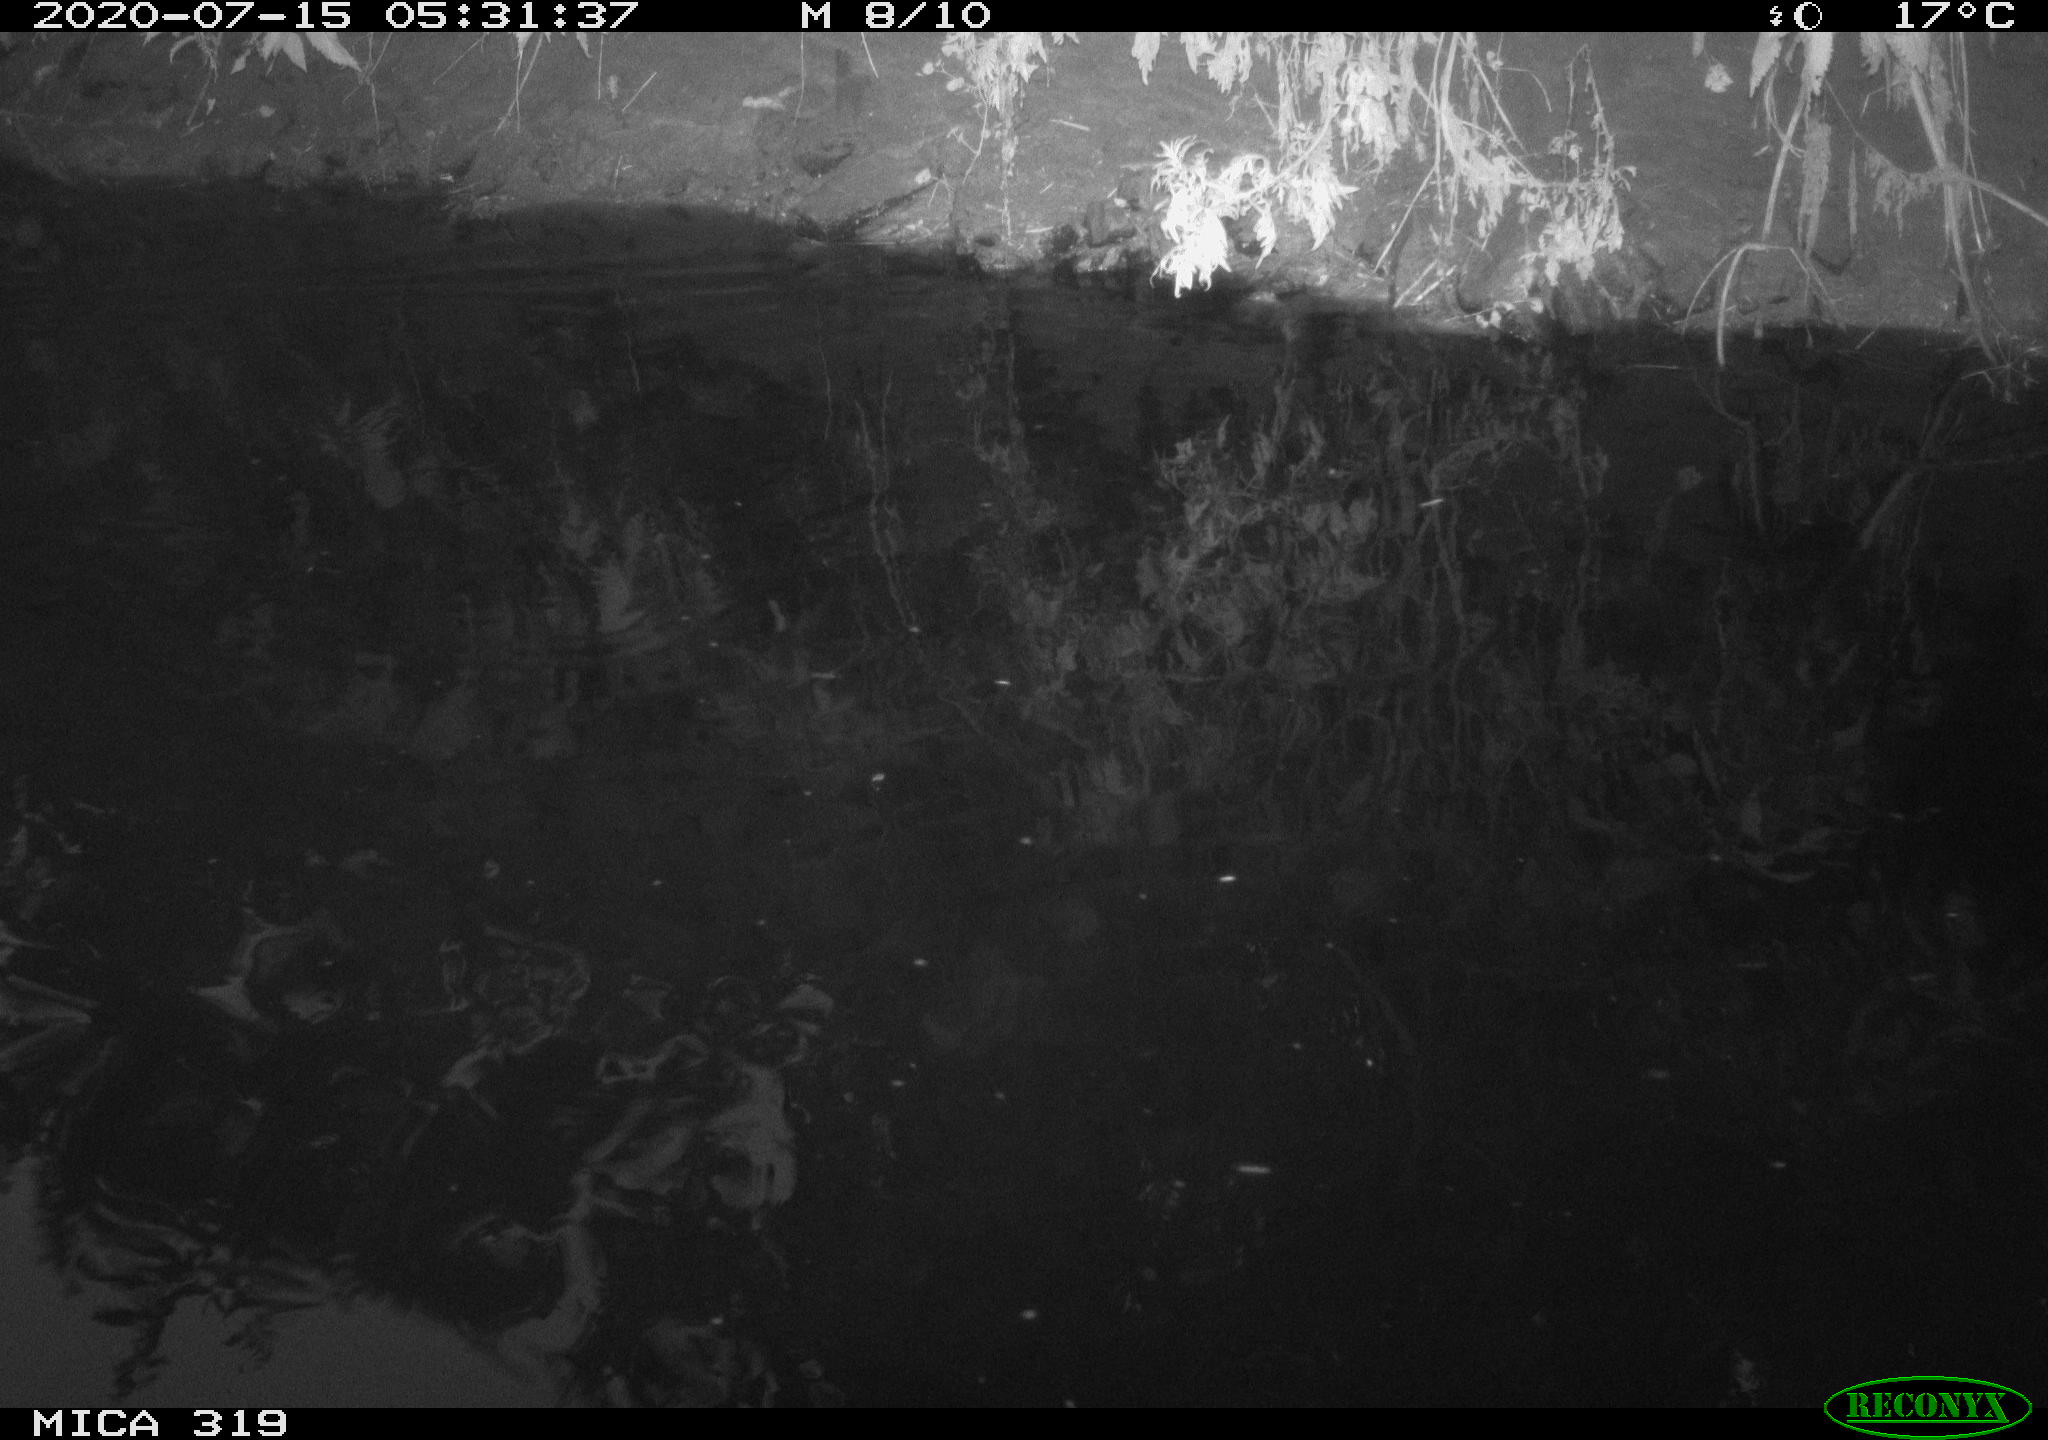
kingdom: Animalia
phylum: Chordata
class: Aves
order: Anseriformes
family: Anatidae
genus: Anas
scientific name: Anas platyrhynchos
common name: Mallard
